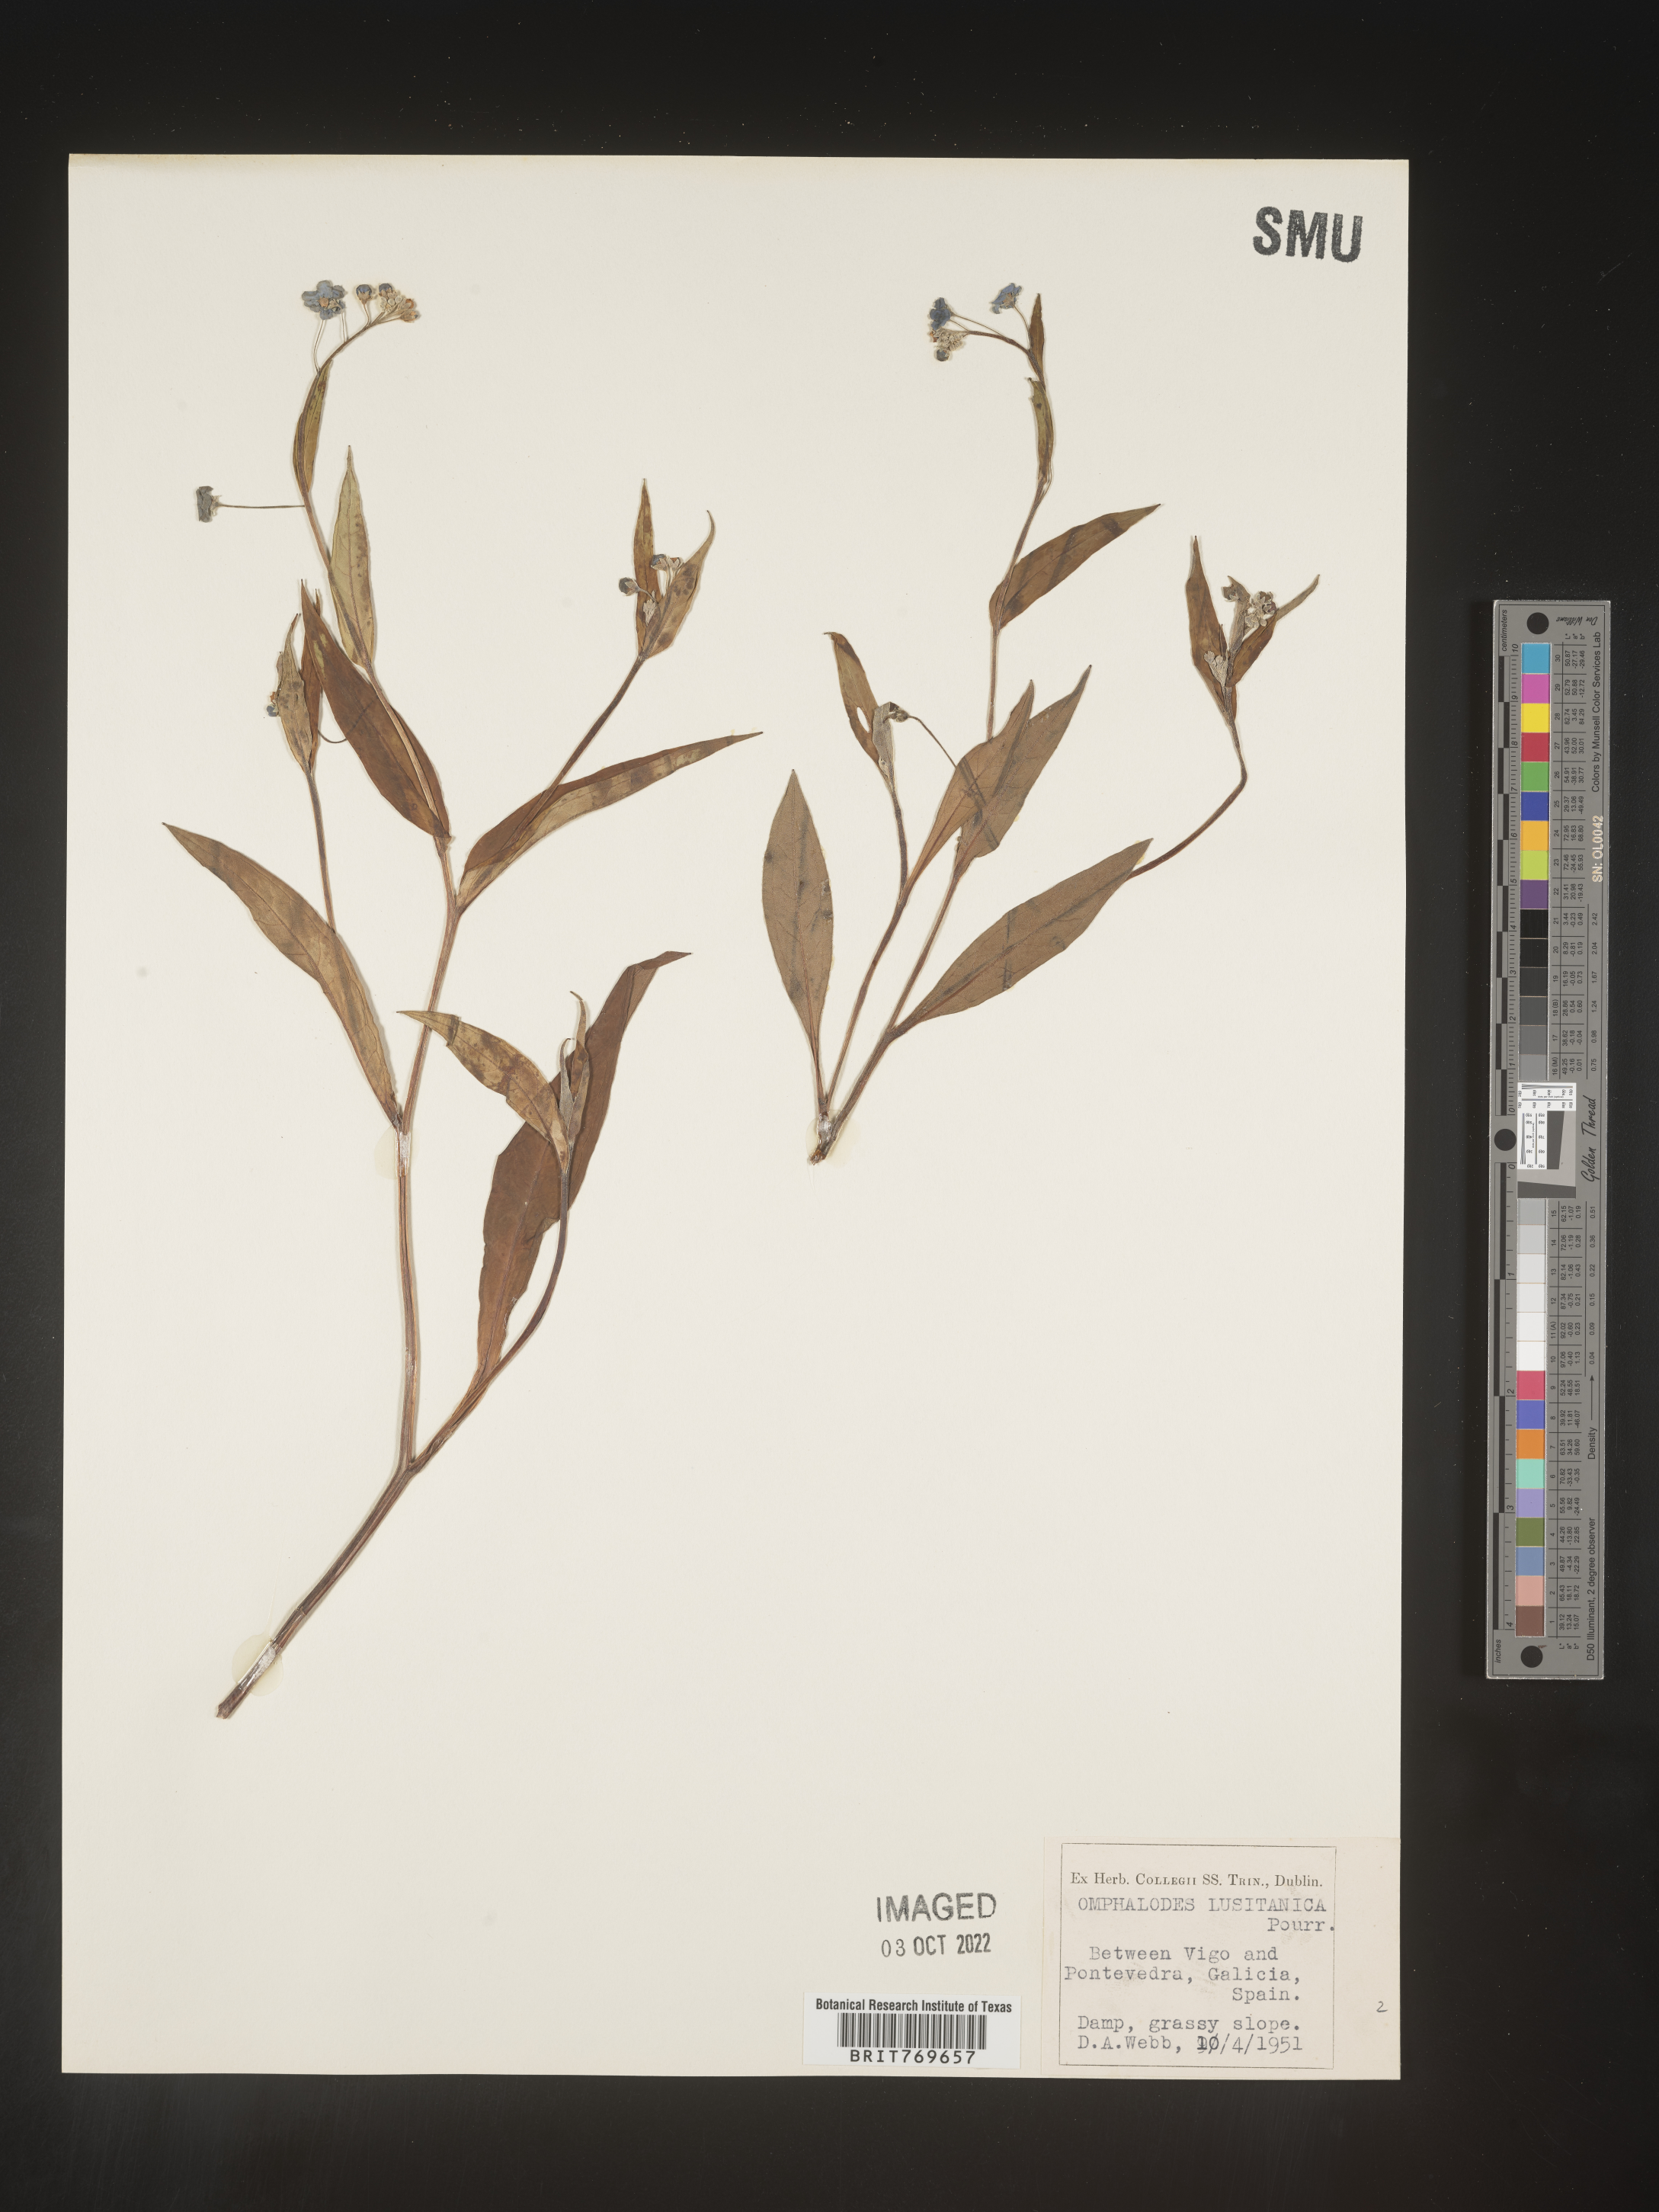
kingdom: Plantae
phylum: Tracheophyta
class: Magnoliopsida
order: Boraginales
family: Boraginaceae
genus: Omphalodes
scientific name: Omphalodes
